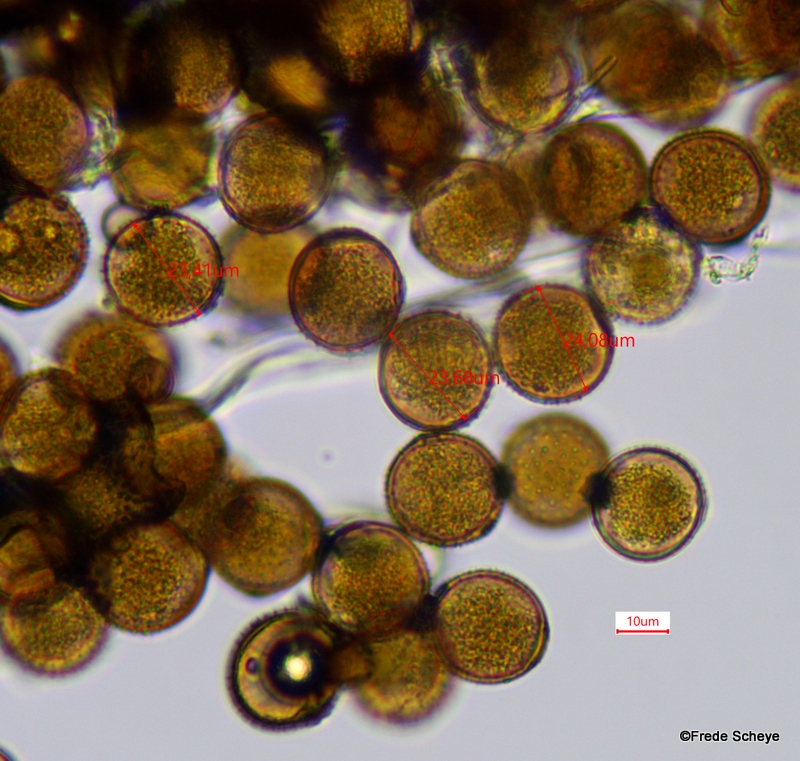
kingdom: Fungi
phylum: Basidiomycota
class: Pucciniomycetes
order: Pucciniales
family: Pucciniaceae
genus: Puccinia
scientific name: Puccinia suaveolens
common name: tidsel-tvecellerust
